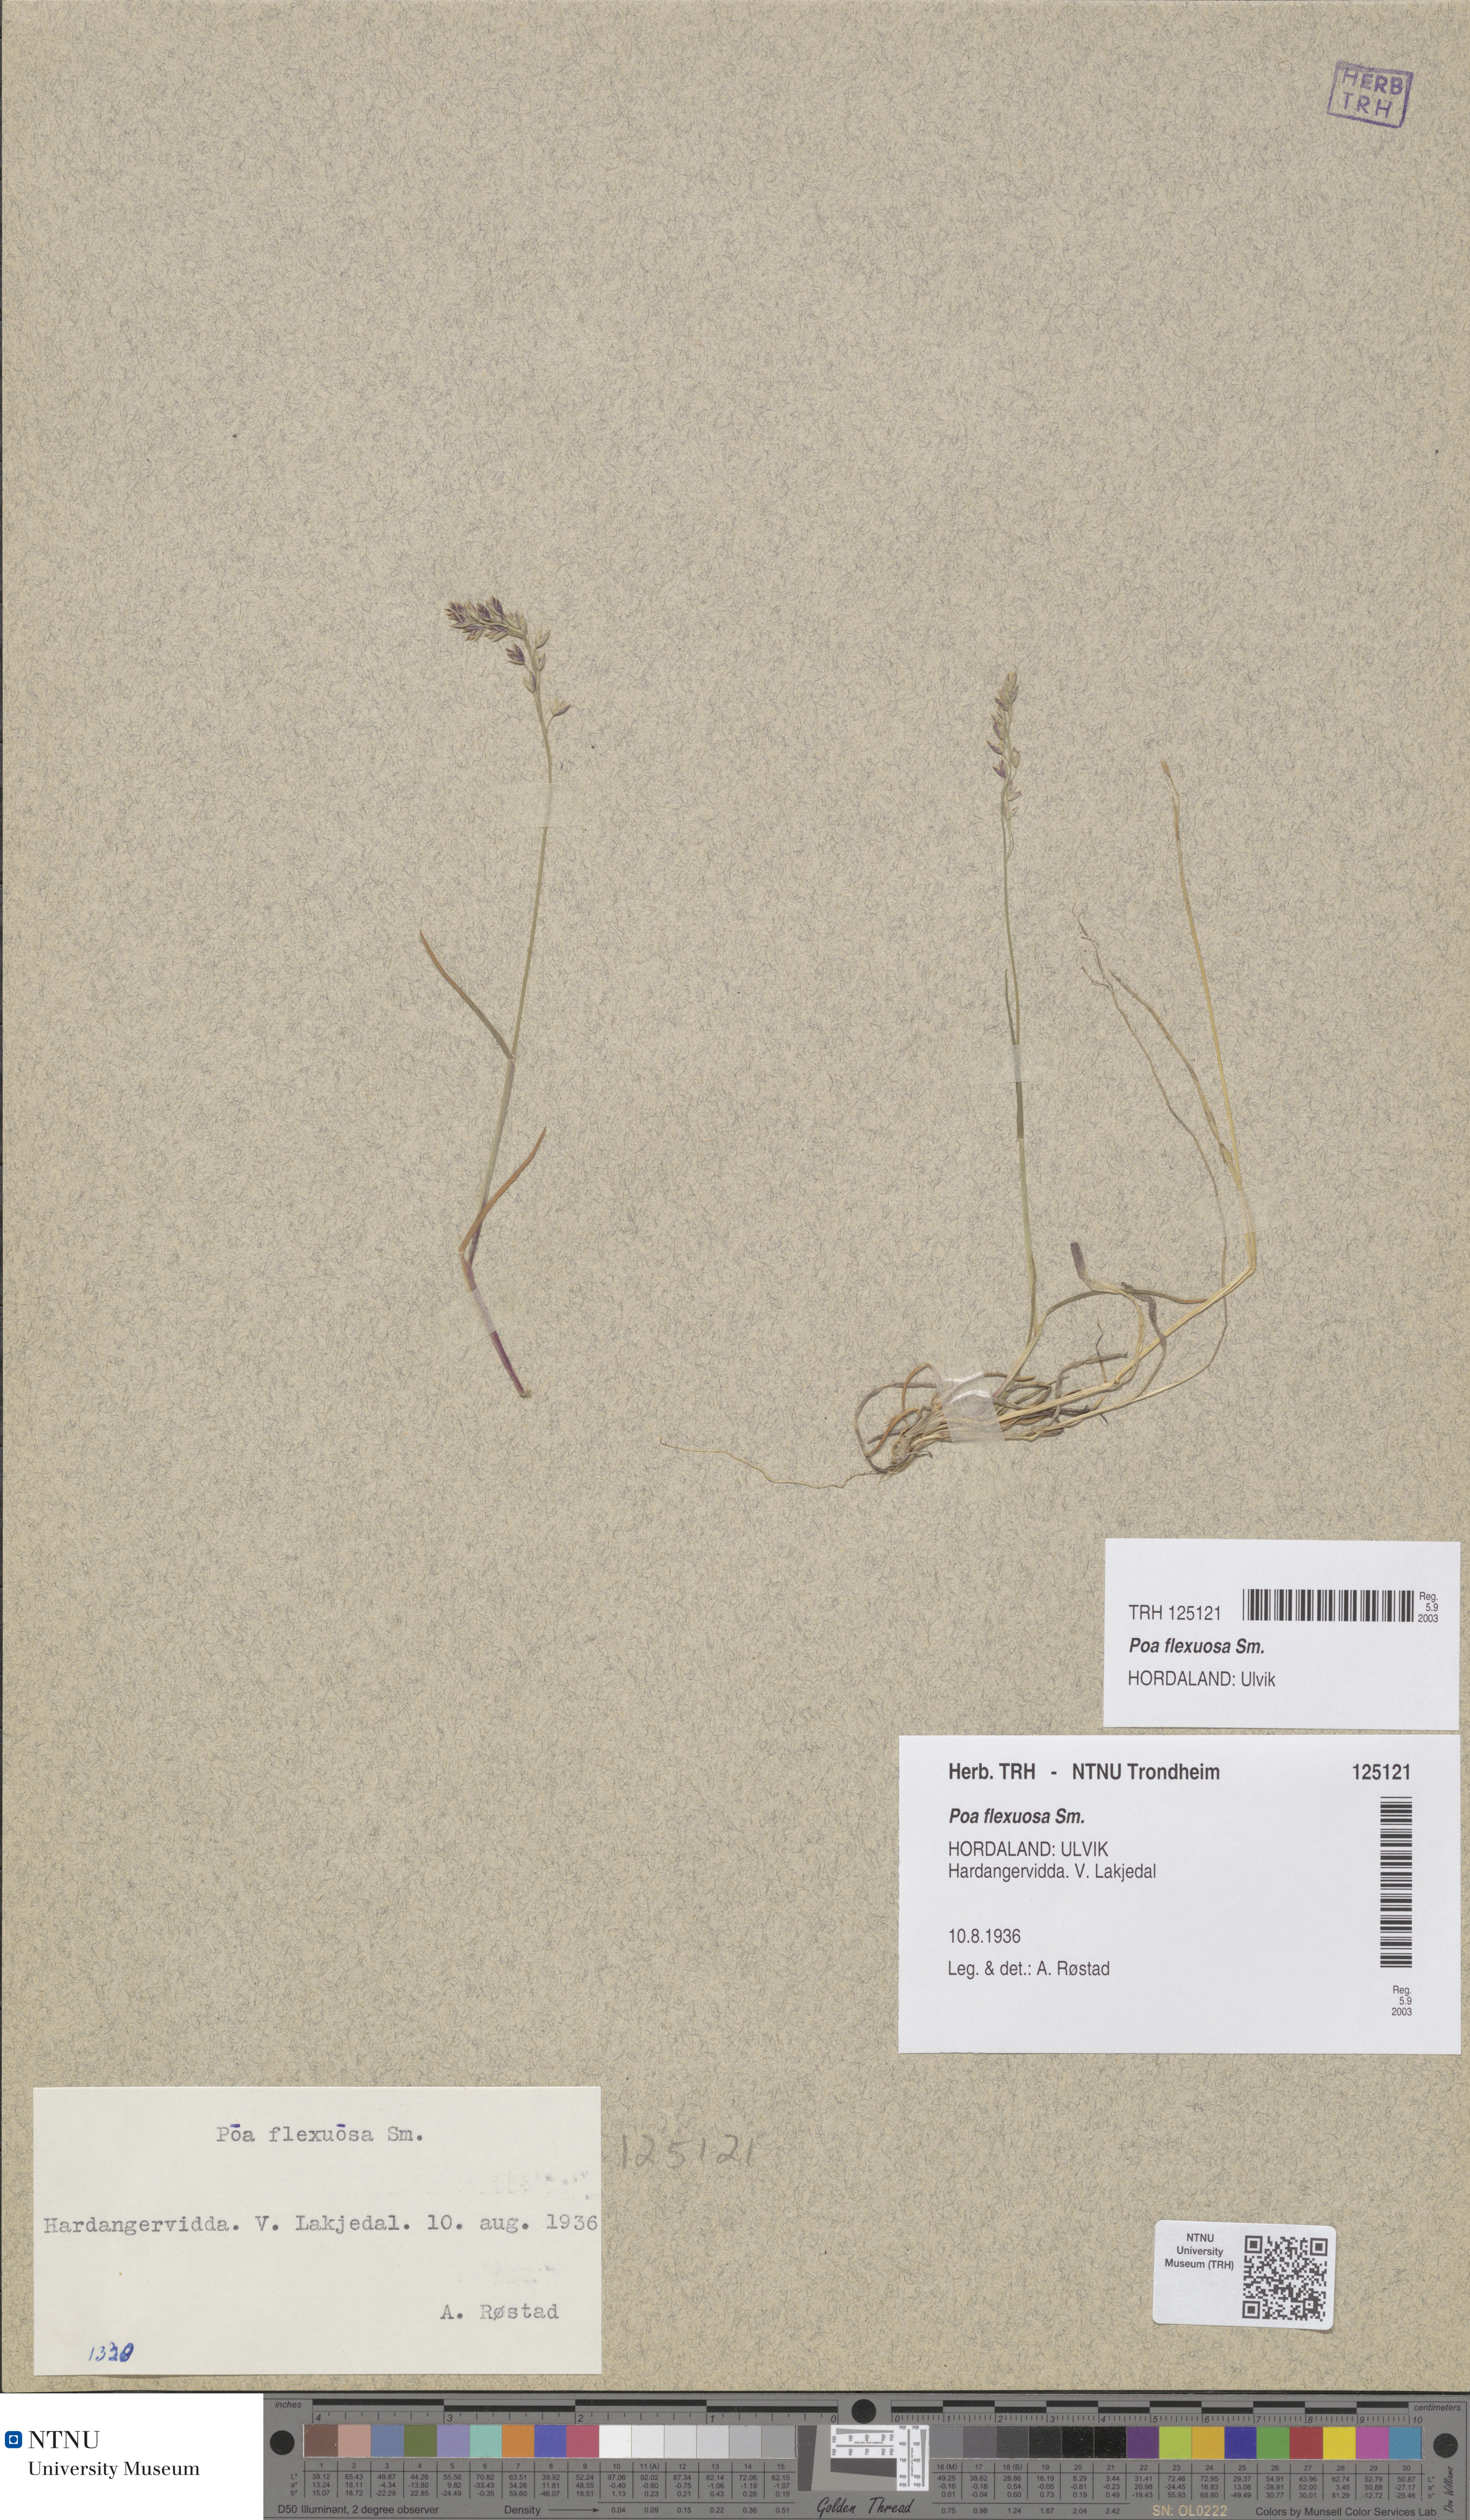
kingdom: Plantae
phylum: Tracheophyta
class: Liliopsida
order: Poales
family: Poaceae
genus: Poa
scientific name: Poa flexuosa
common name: Wavy meadow-grass
